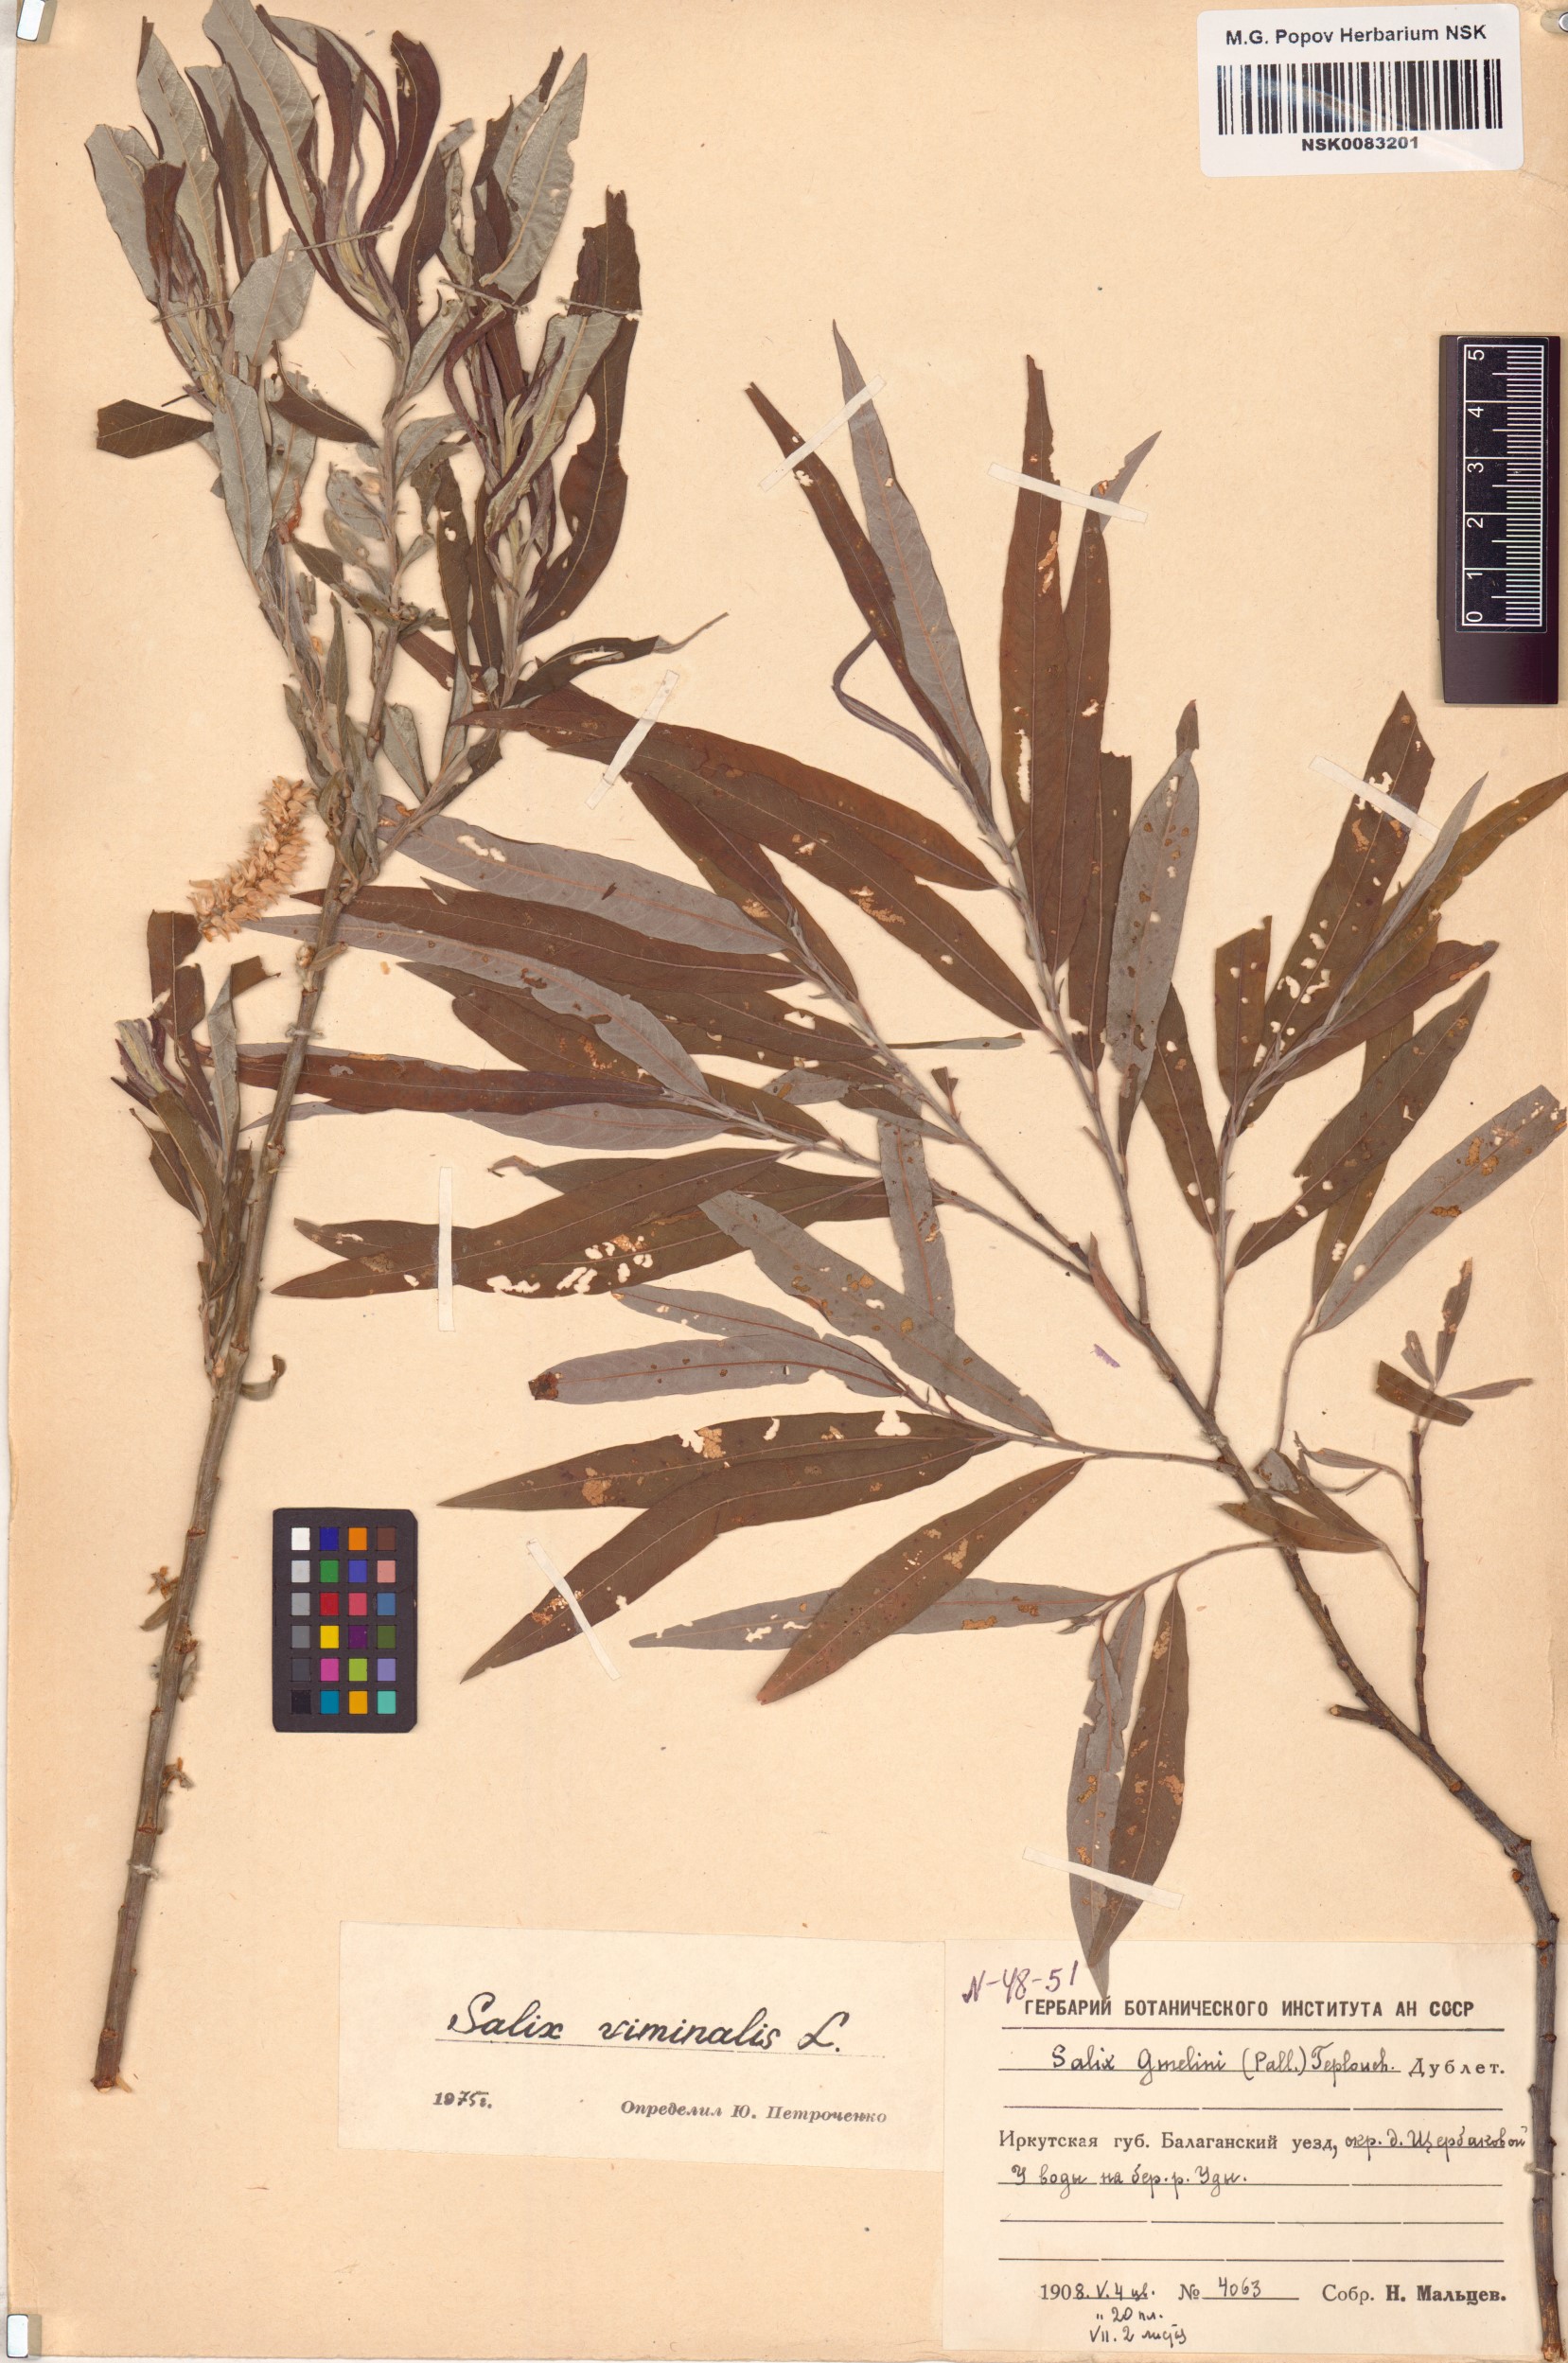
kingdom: Plantae
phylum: Tracheophyta
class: Magnoliopsida
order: Malpighiales
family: Salicaceae
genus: Salix
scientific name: Salix viminalis
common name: Osier
